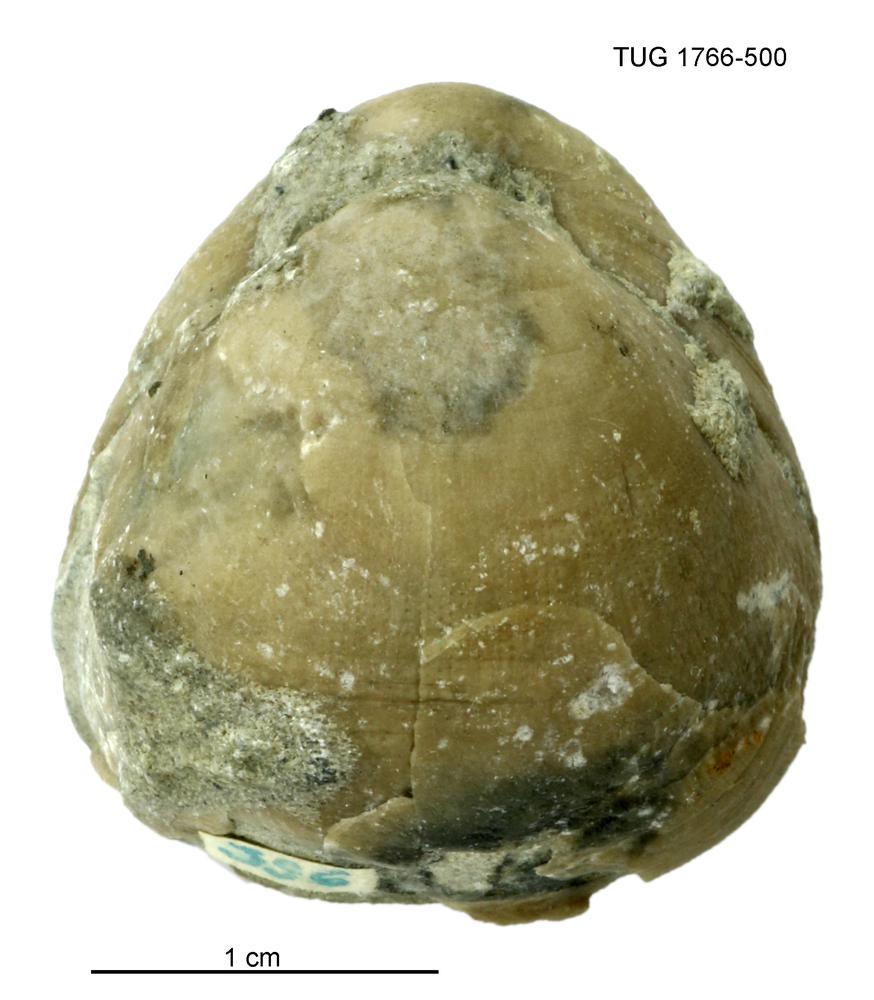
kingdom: Animalia
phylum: Brachiopoda
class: Rhynchonellata
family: Porambonitidae
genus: Porambonites
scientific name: Porambonites
